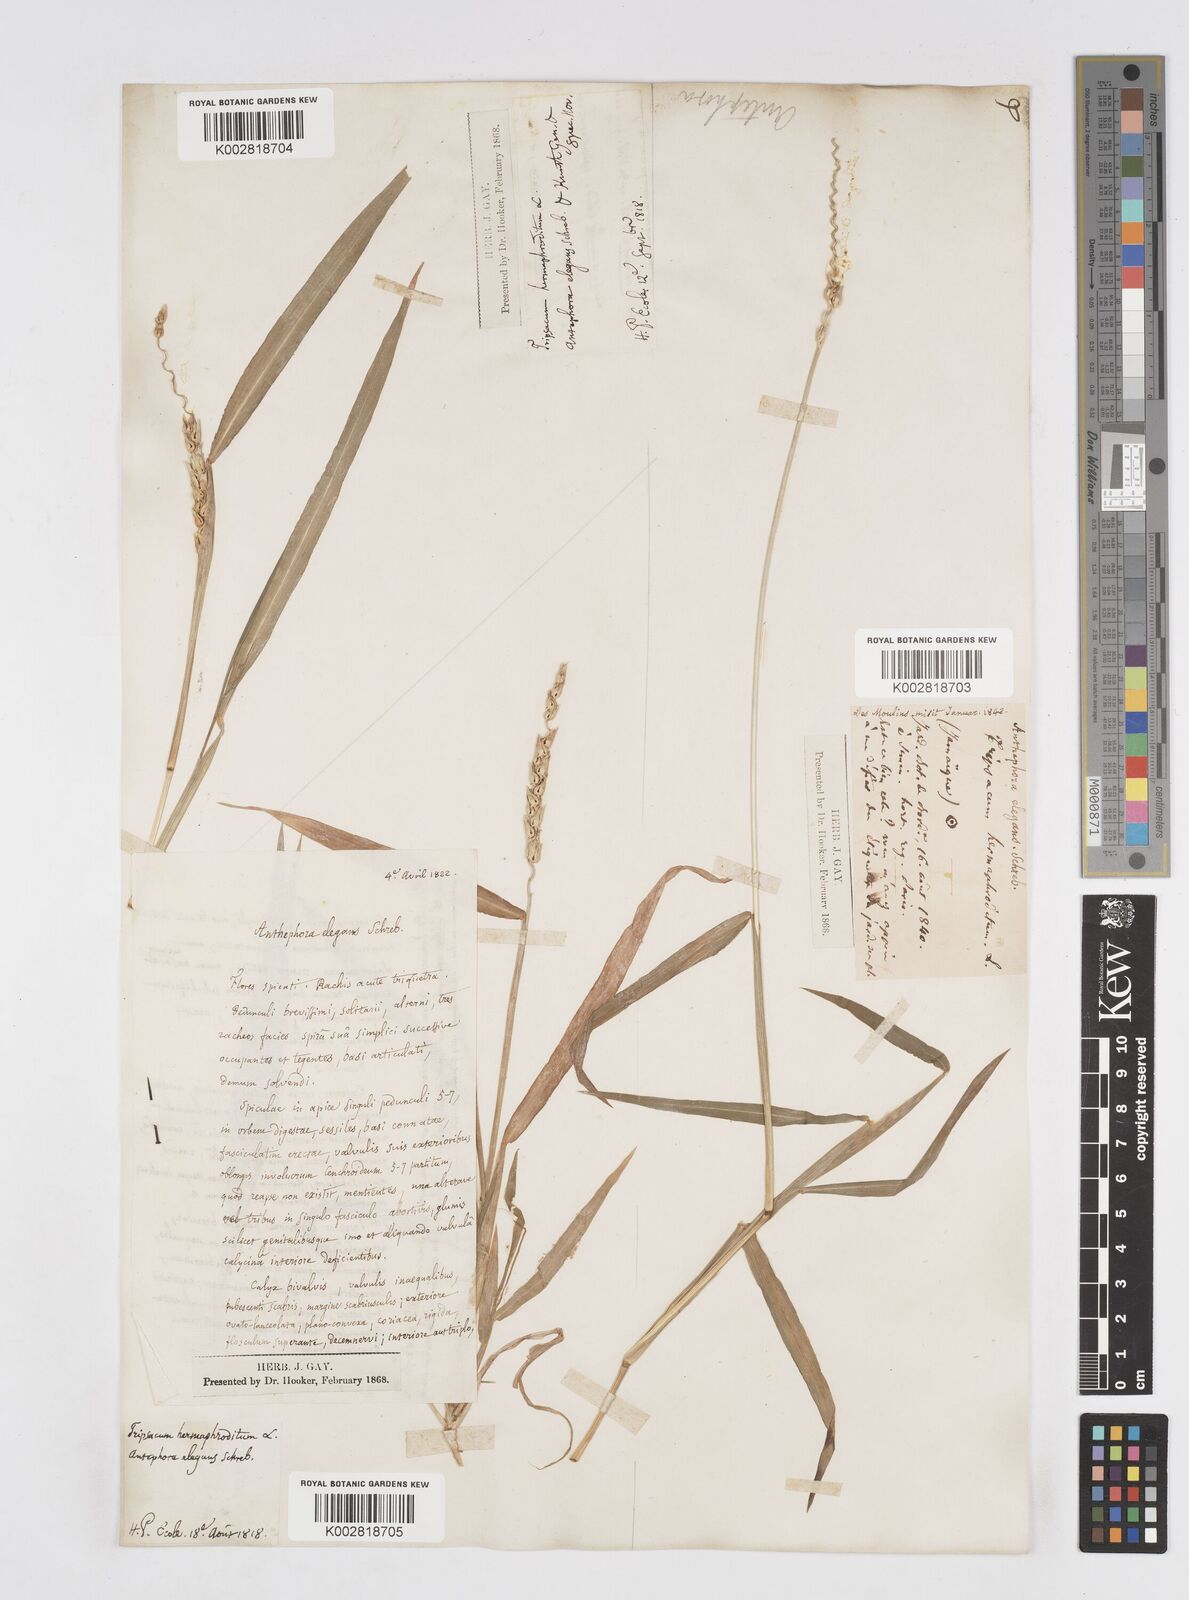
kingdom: Plantae
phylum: Tracheophyta
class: Liliopsida
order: Poales
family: Poaceae
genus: Anthephora
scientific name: Anthephora hermaphrodita
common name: Oldfield grass
